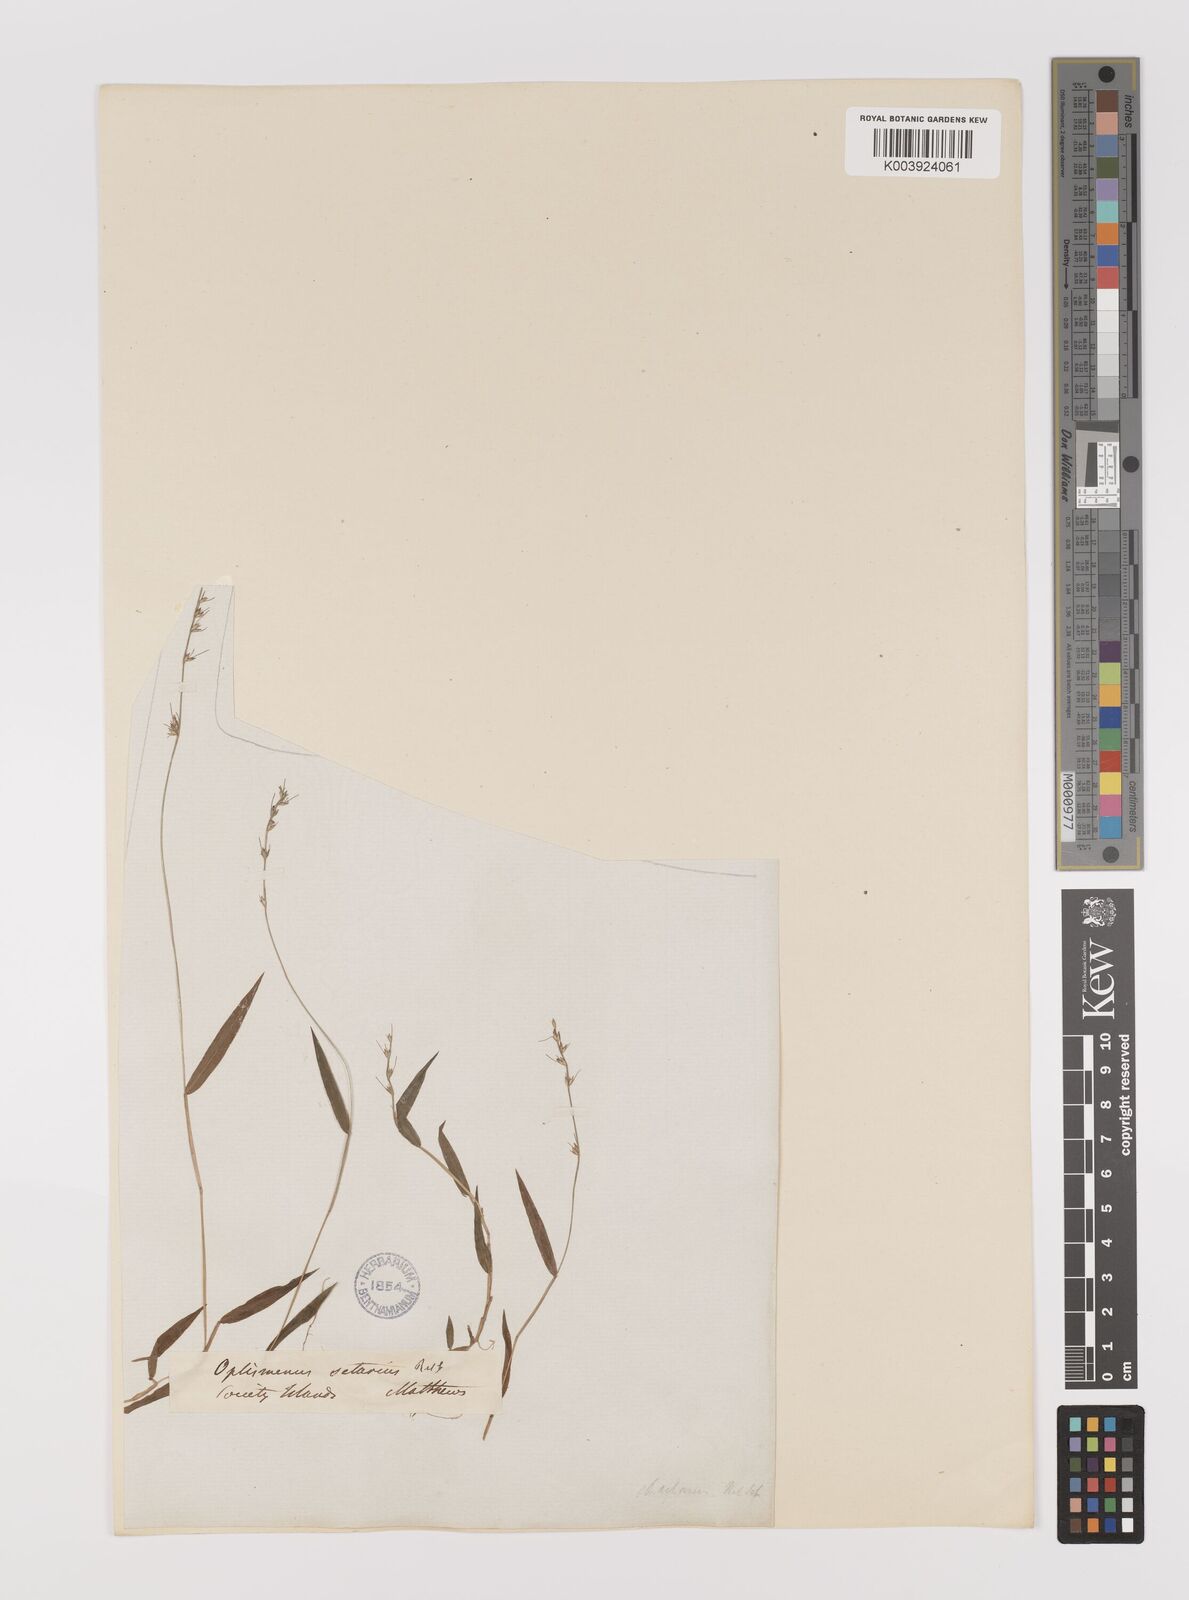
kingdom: Plantae
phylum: Tracheophyta
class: Liliopsida
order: Poales
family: Poaceae
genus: Oplismenus
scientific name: Oplismenus hirtellus
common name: Basketgrass
